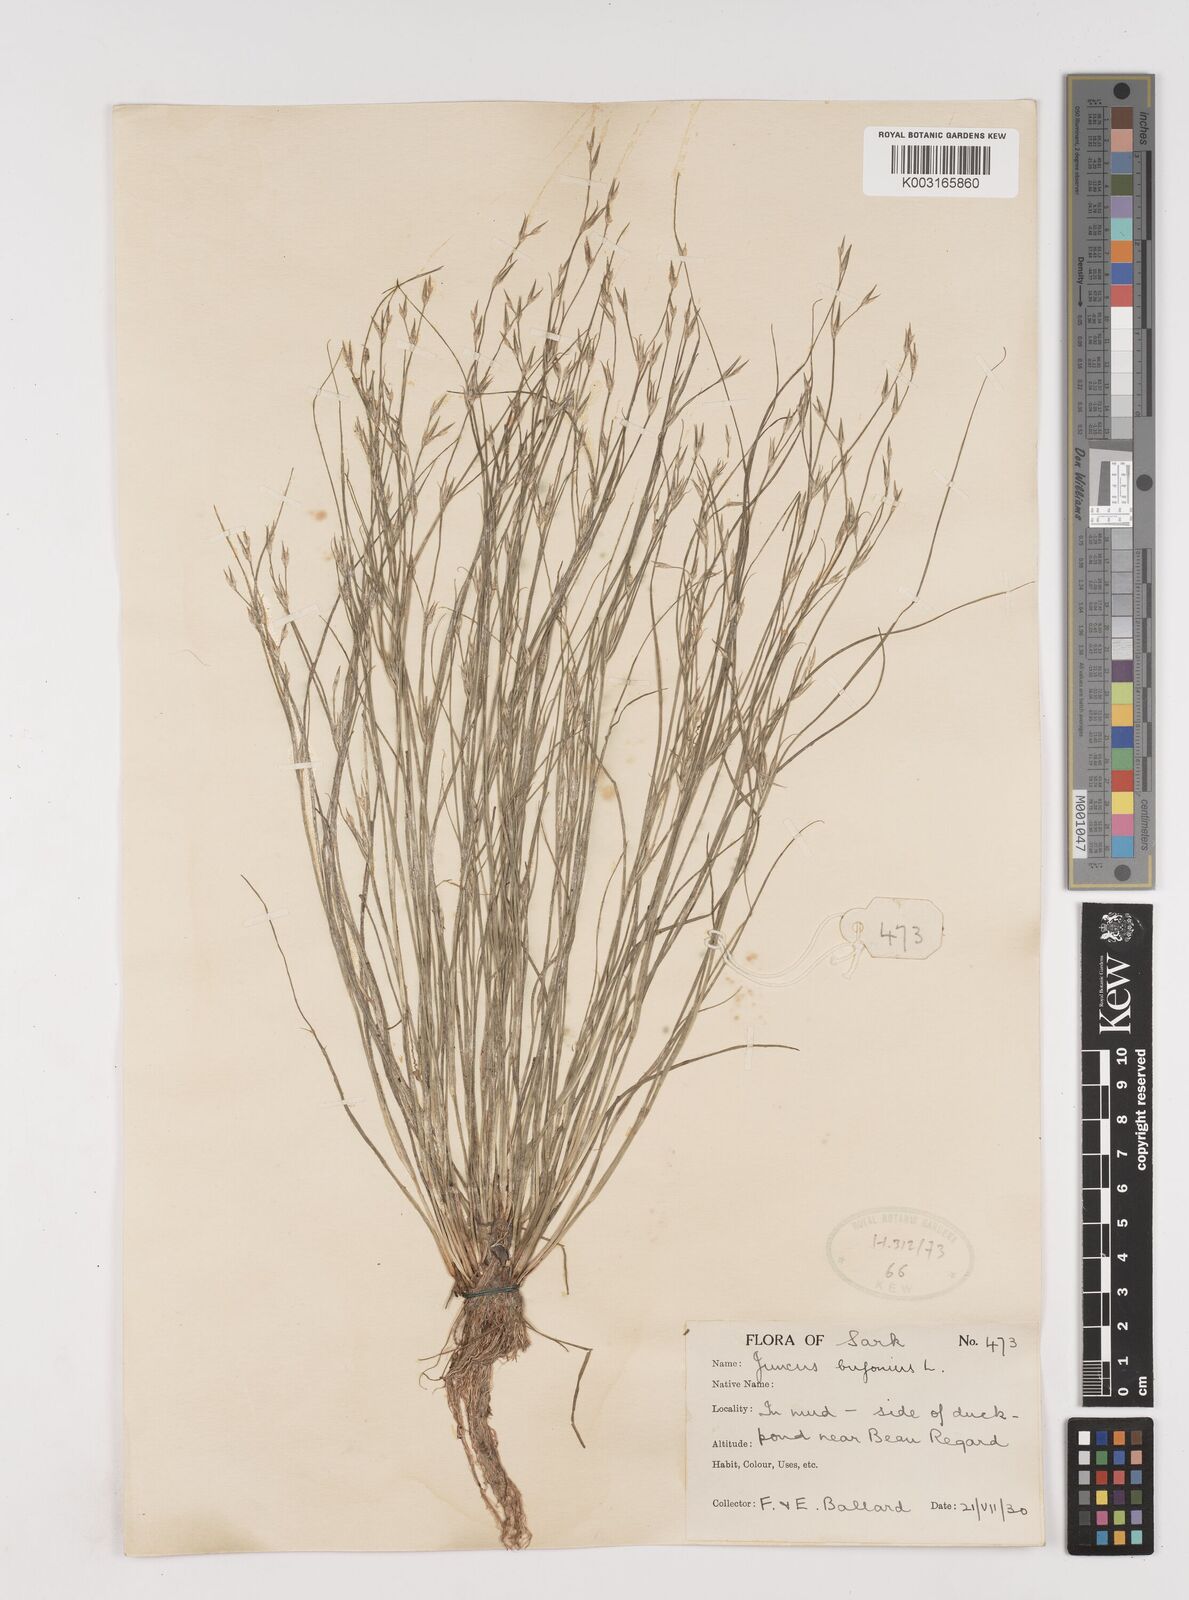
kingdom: Plantae
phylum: Tracheophyta
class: Liliopsida
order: Poales
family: Juncaceae
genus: Juncus
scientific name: Juncus bufonius
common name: Toad rush
